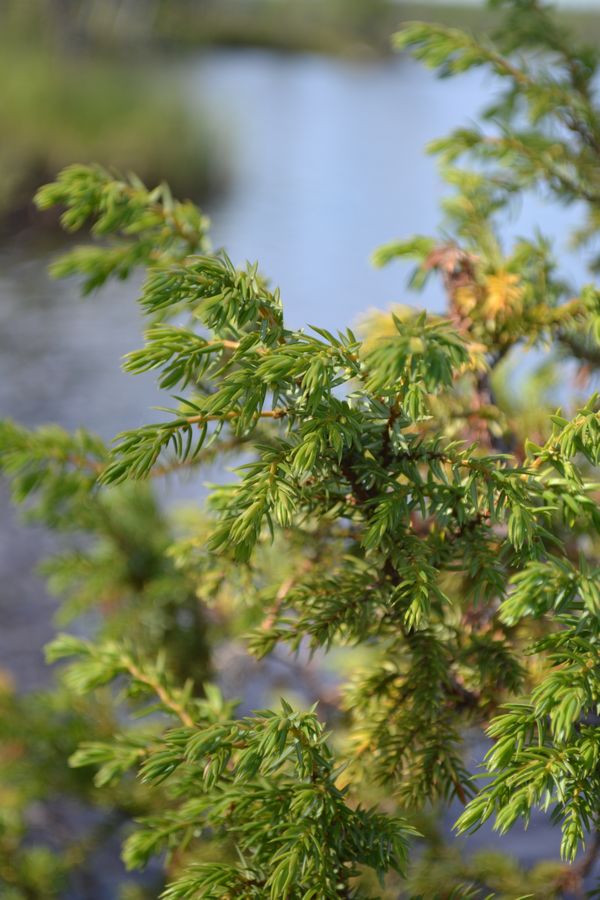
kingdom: Plantae
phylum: Tracheophyta
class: Pinopsida
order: Pinales
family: Cupressaceae
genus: Juniperus
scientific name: Juniperus communis
